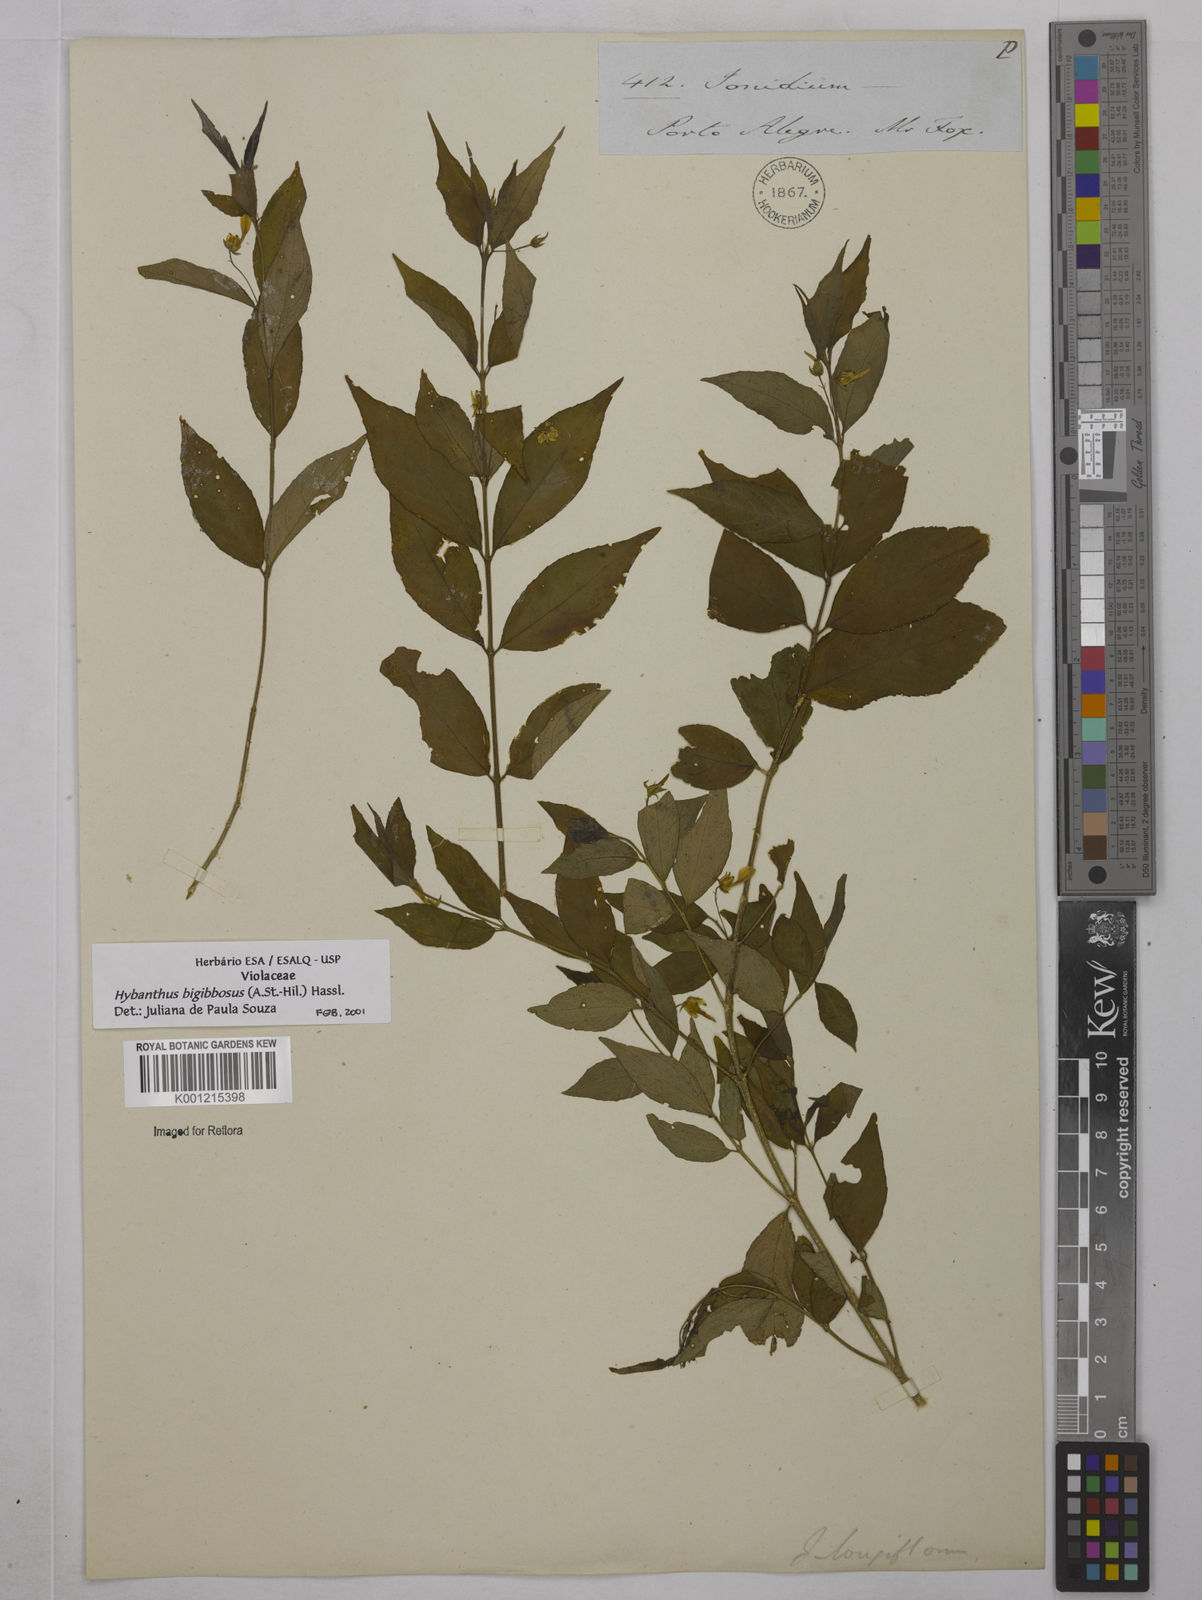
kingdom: Plantae
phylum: Tracheophyta
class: Magnoliopsida
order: Malpighiales
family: Violaceae
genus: Pombalia
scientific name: Pombalia bigibbosa
